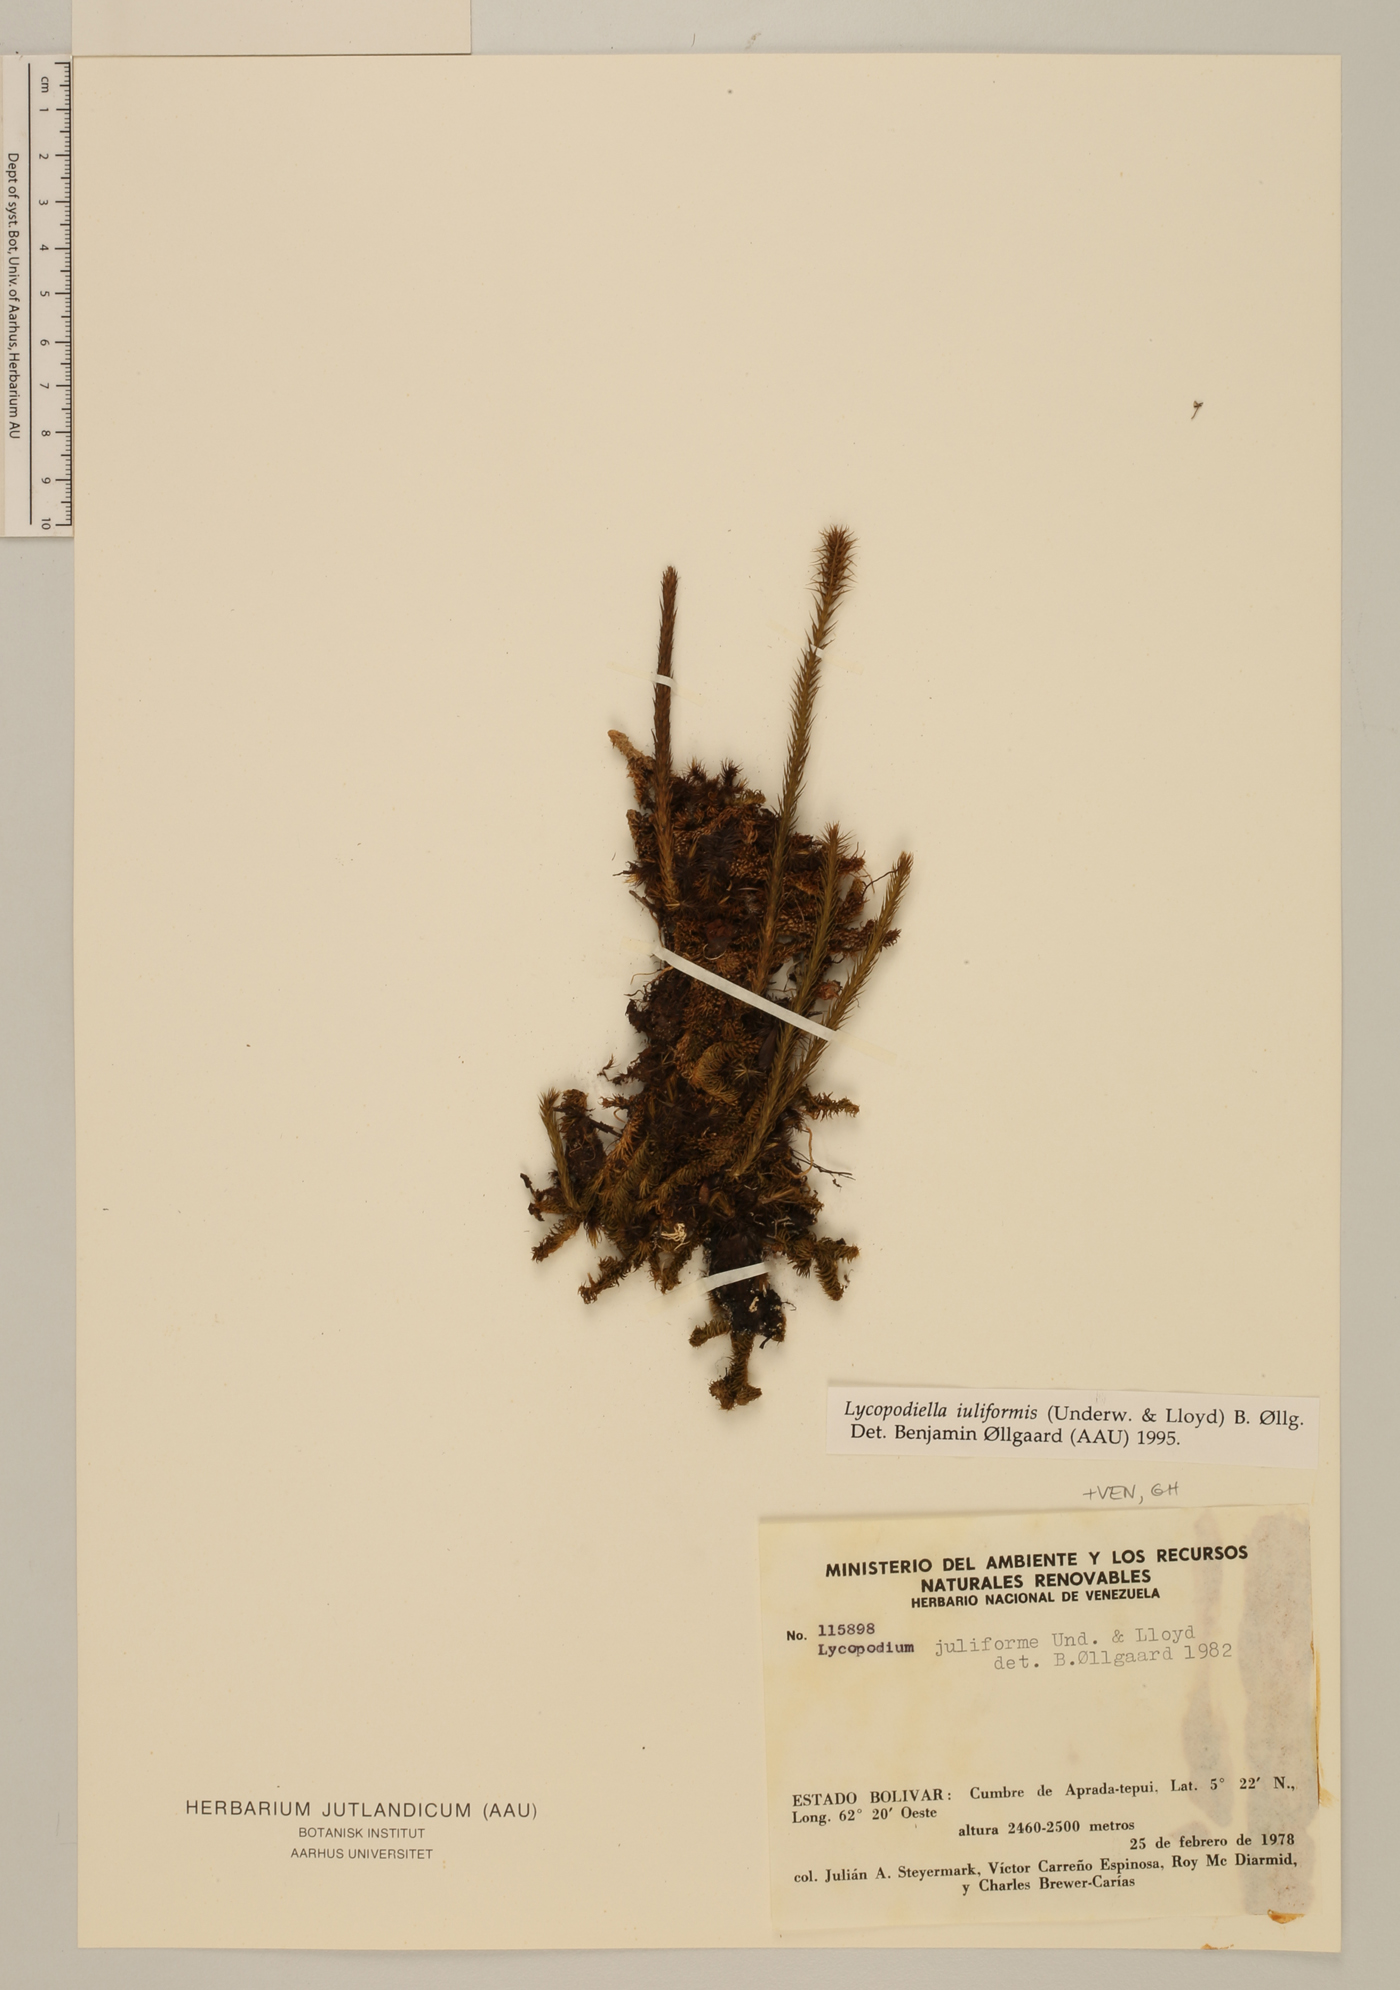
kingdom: Plantae
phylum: Tracheophyta
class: Lycopodiopsida
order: Lycopodiales
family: Lycopodiaceae
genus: Pseudolycopodiella
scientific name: Pseudolycopodiella iuliformis
